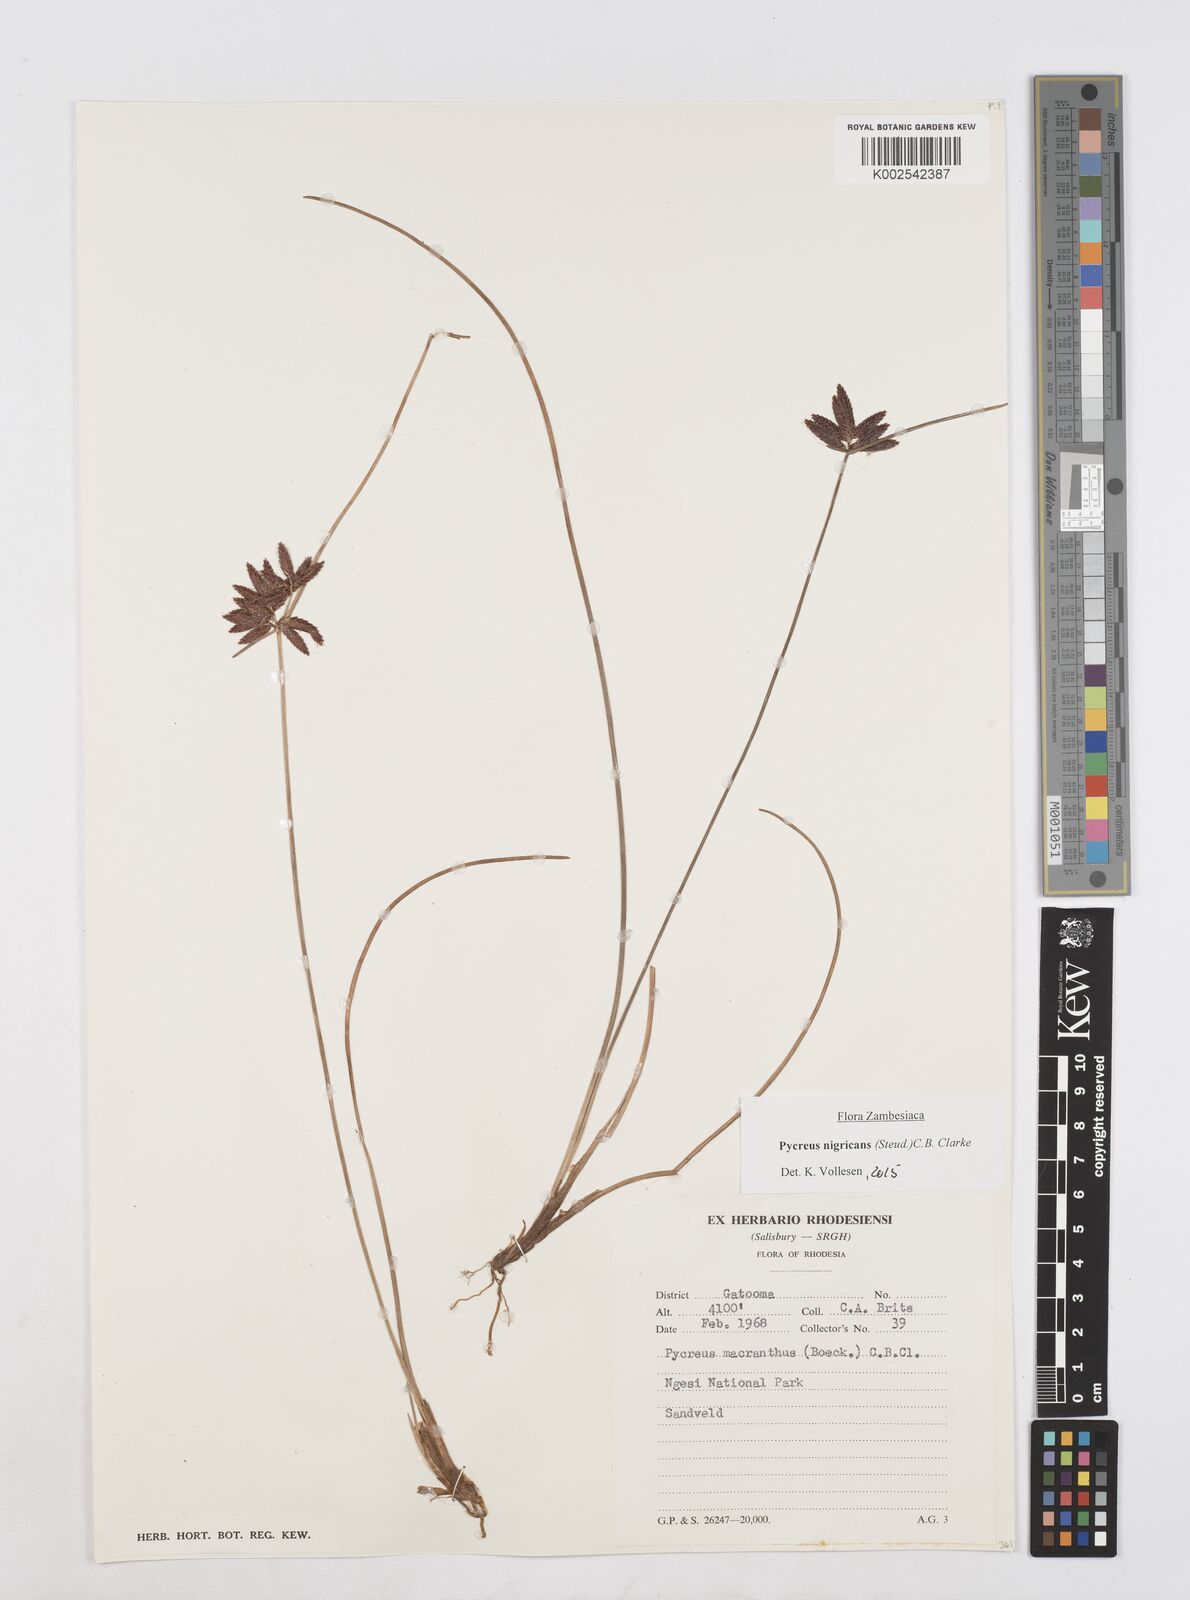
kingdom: Plantae
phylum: Tracheophyta
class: Liliopsida
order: Poales
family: Cyperaceae
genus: Cyperus
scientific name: Cyperus nigricans
